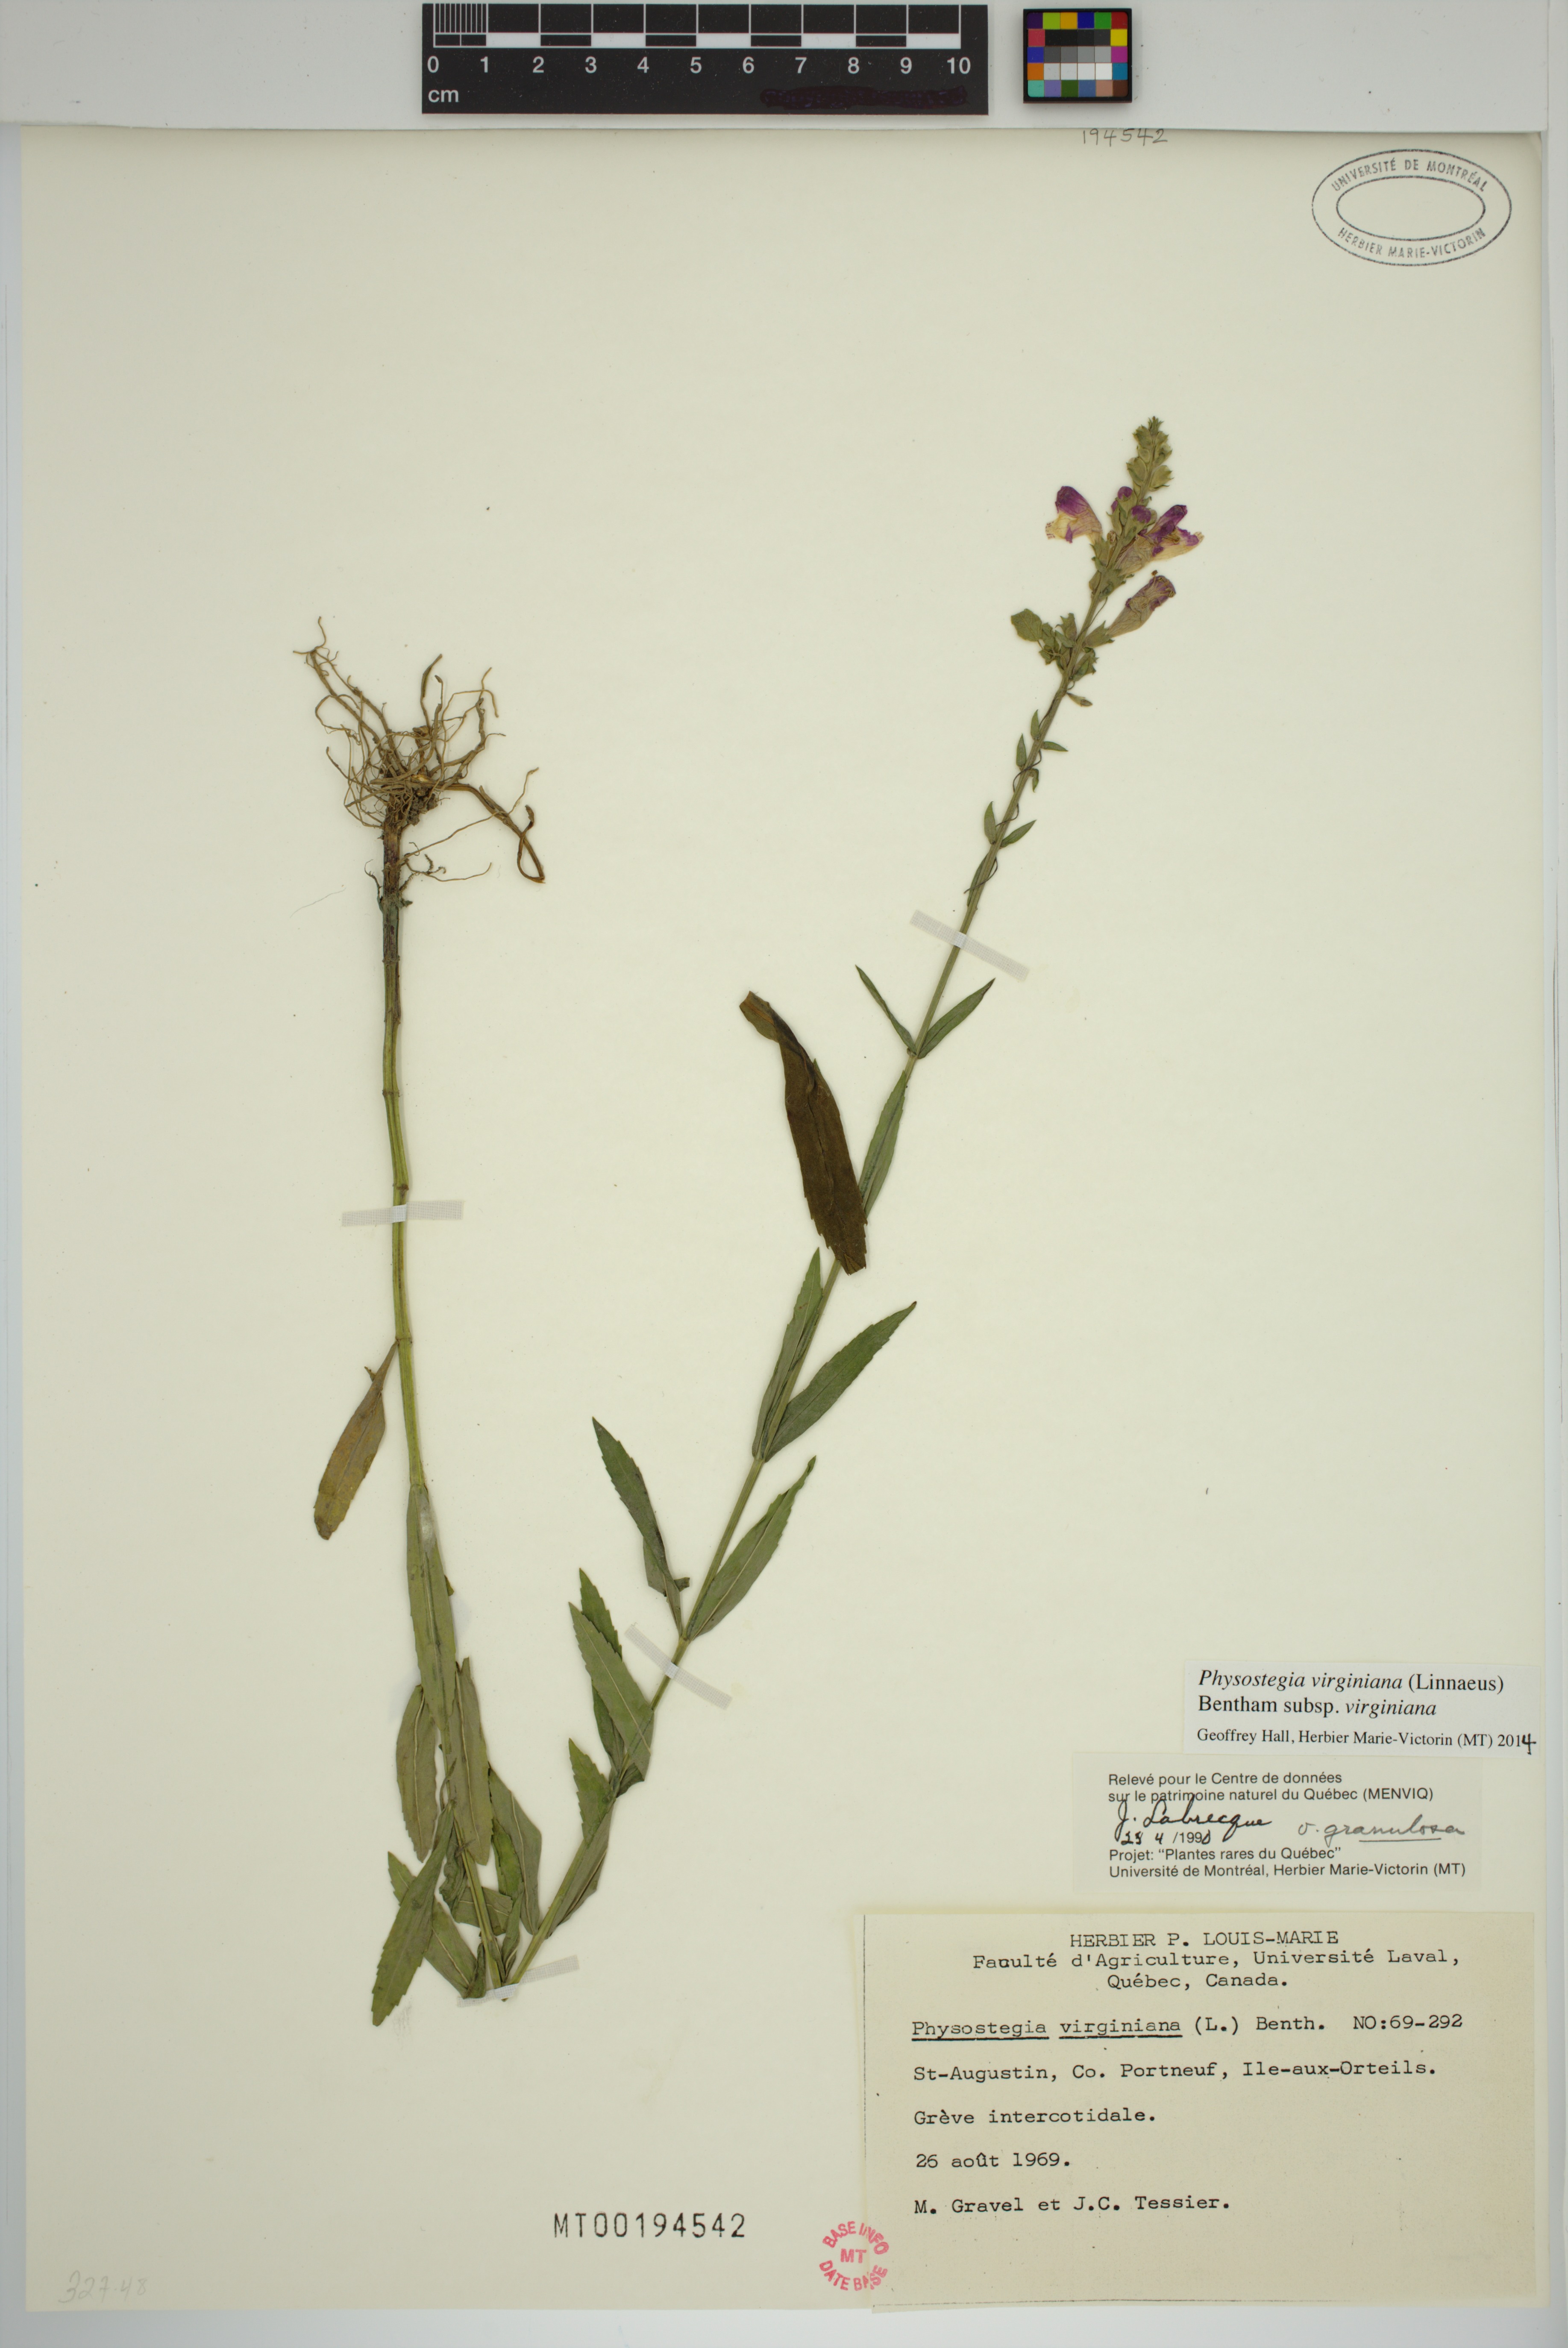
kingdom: Plantae
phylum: Tracheophyta
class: Magnoliopsida
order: Lamiales
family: Lamiaceae
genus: Physostegia
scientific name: Physostegia virginiana
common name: Obedient-plant
